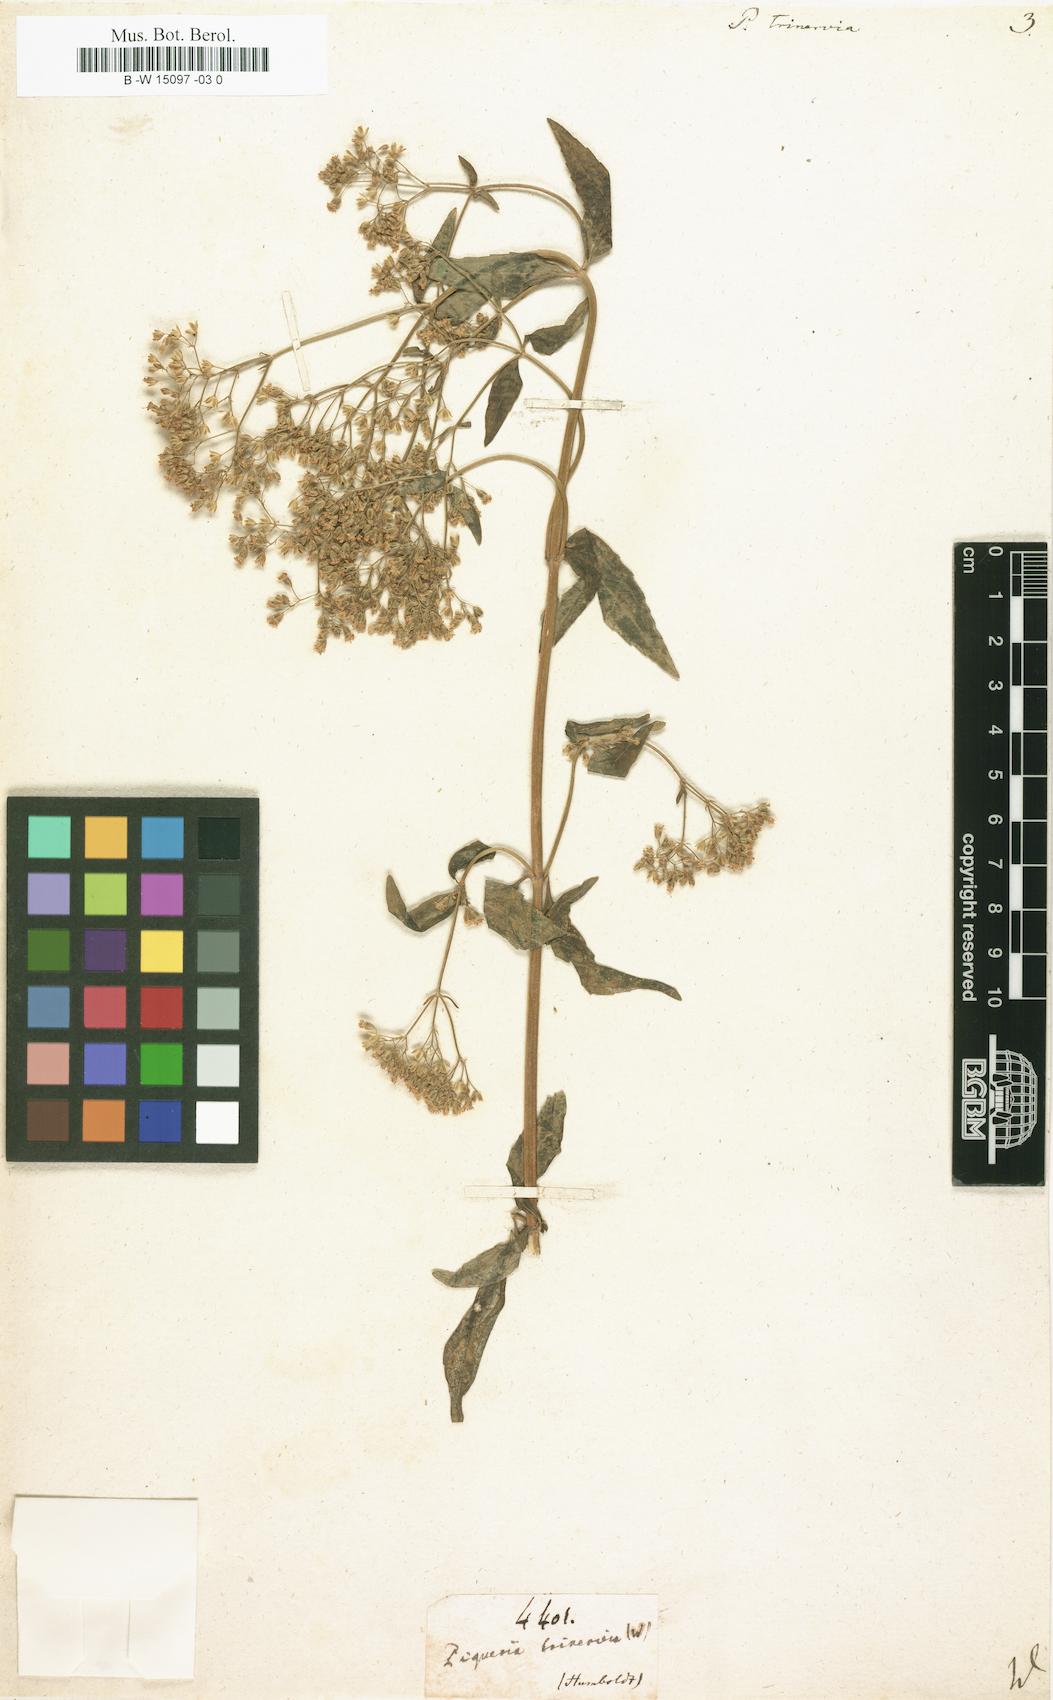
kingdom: Plantae
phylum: Tracheophyta
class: Magnoliopsida
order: Asterales
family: Asteraceae
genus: Piqueria
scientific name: Piqueria trinervia
